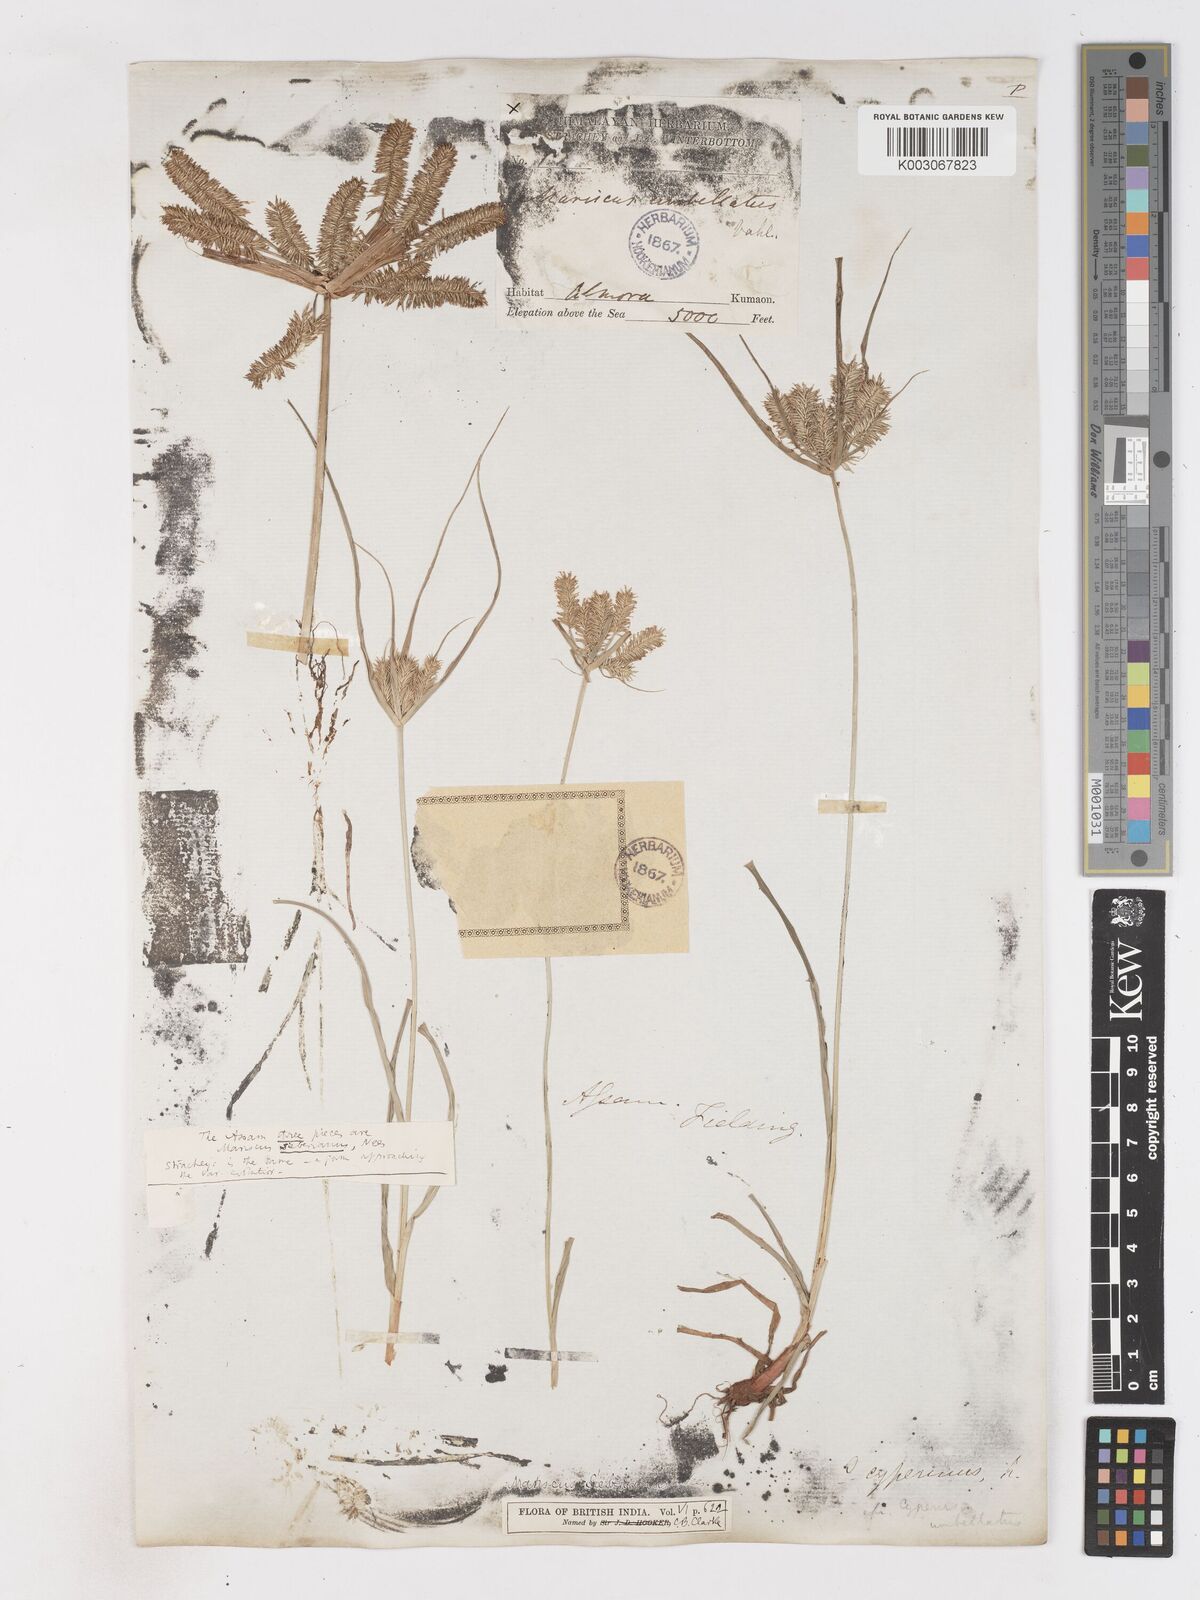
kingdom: Plantae
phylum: Tracheophyta
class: Liliopsida
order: Poales
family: Cyperaceae
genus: Cyperus
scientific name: Cyperus cyperoides
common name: Pacific island flat sedge
